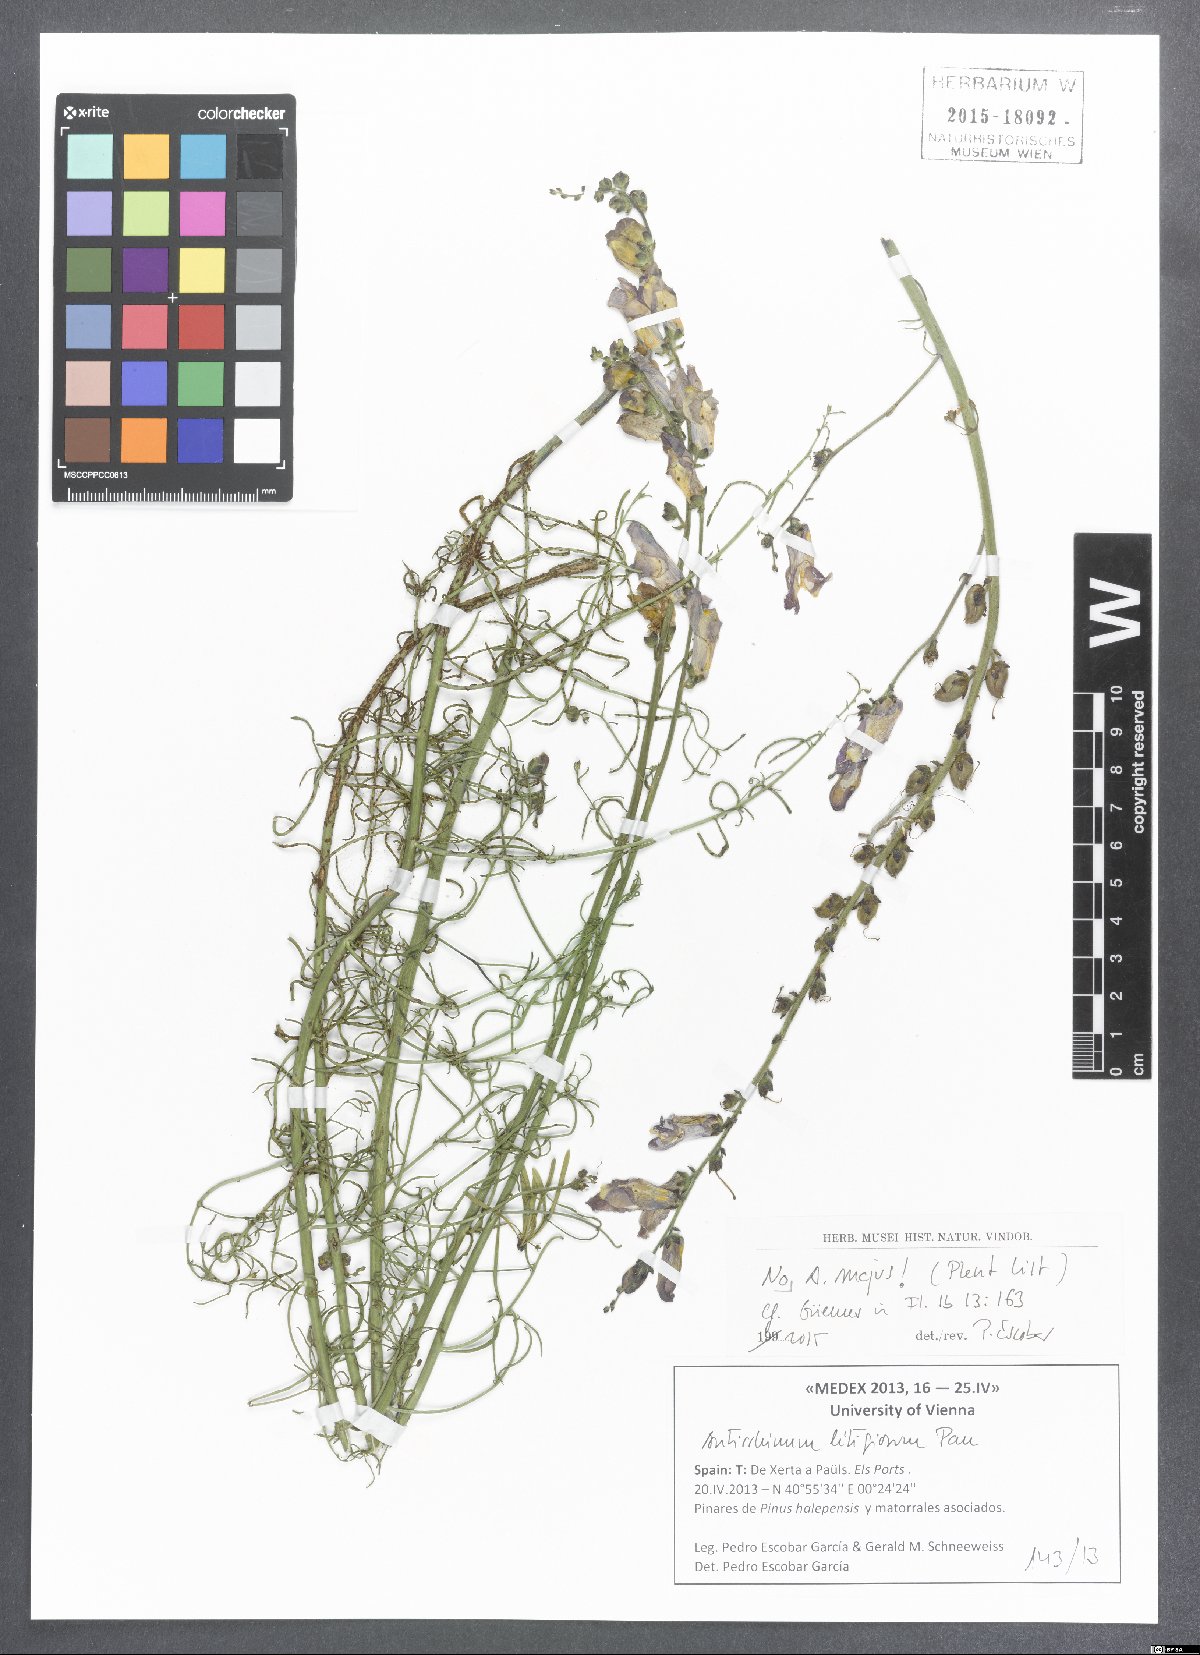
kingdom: Plantae
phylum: Tracheophyta
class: Magnoliopsida
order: Lamiales
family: Plantaginaceae
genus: Antirrhinum
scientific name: Antirrhinum majus
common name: Snapdragon
